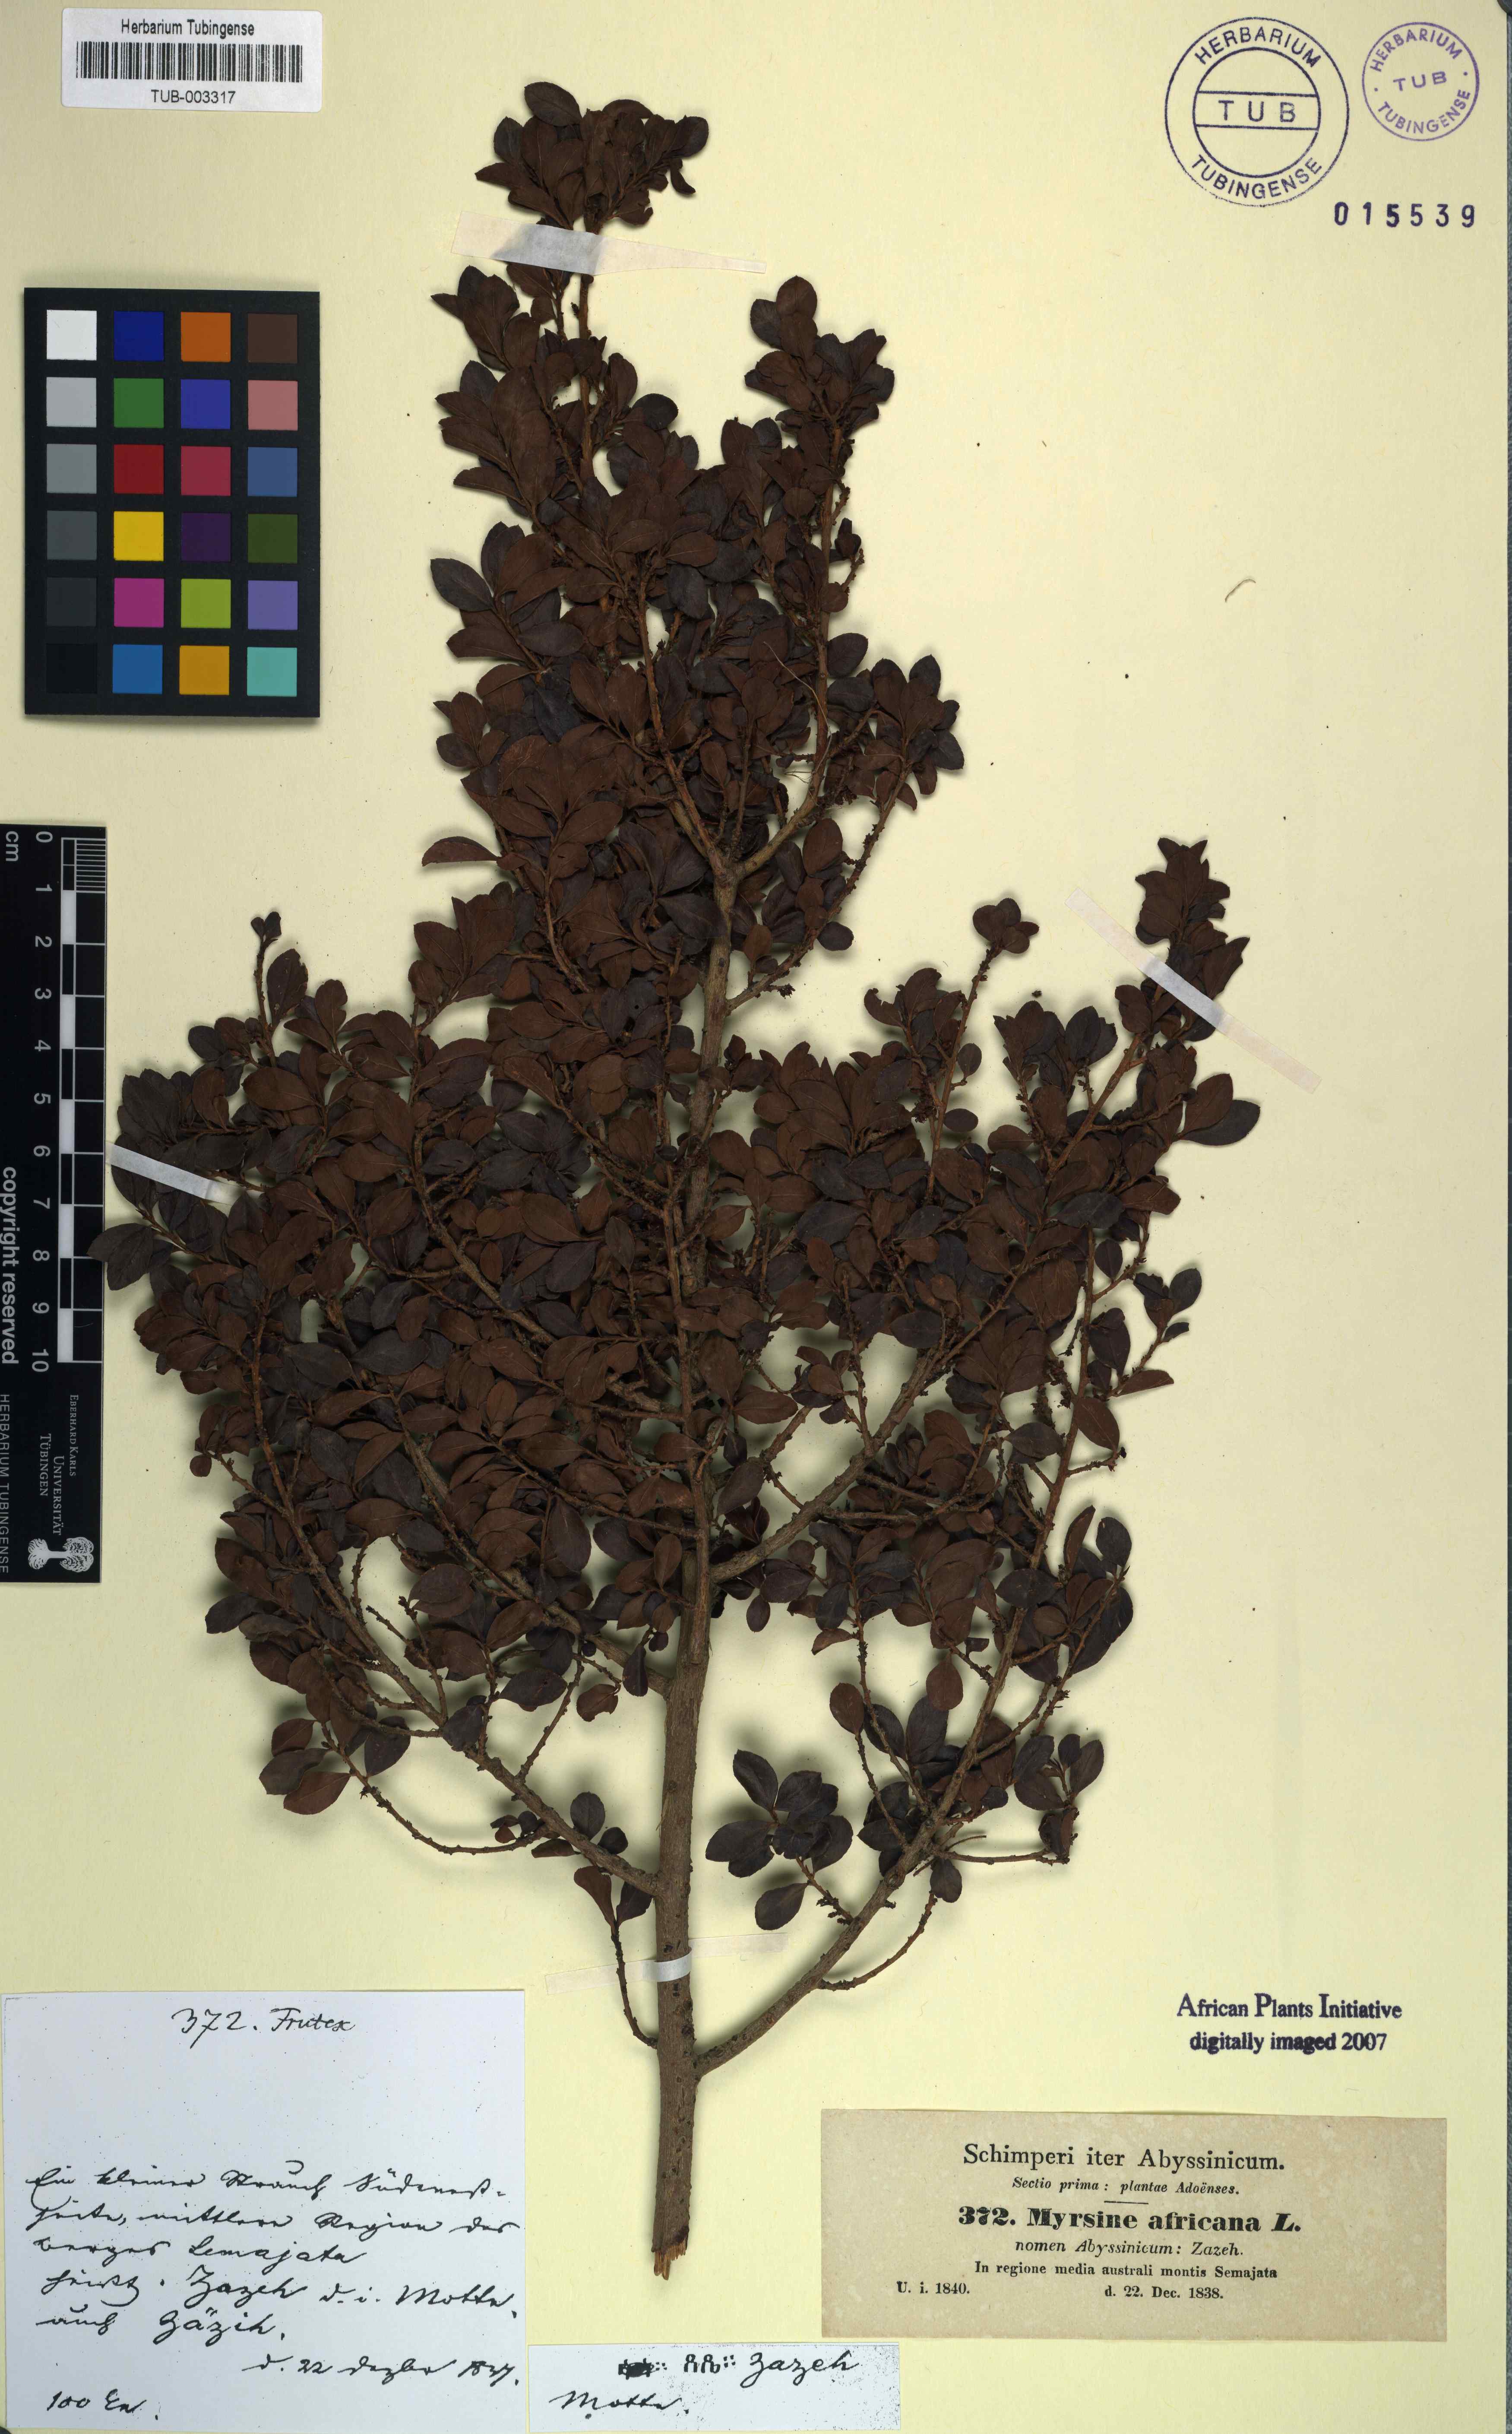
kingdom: Plantae
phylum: Tracheophyta
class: Magnoliopsida
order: Ericales
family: Primulaceae
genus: Myrsine
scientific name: Myrsine africana
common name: African-boxwood
